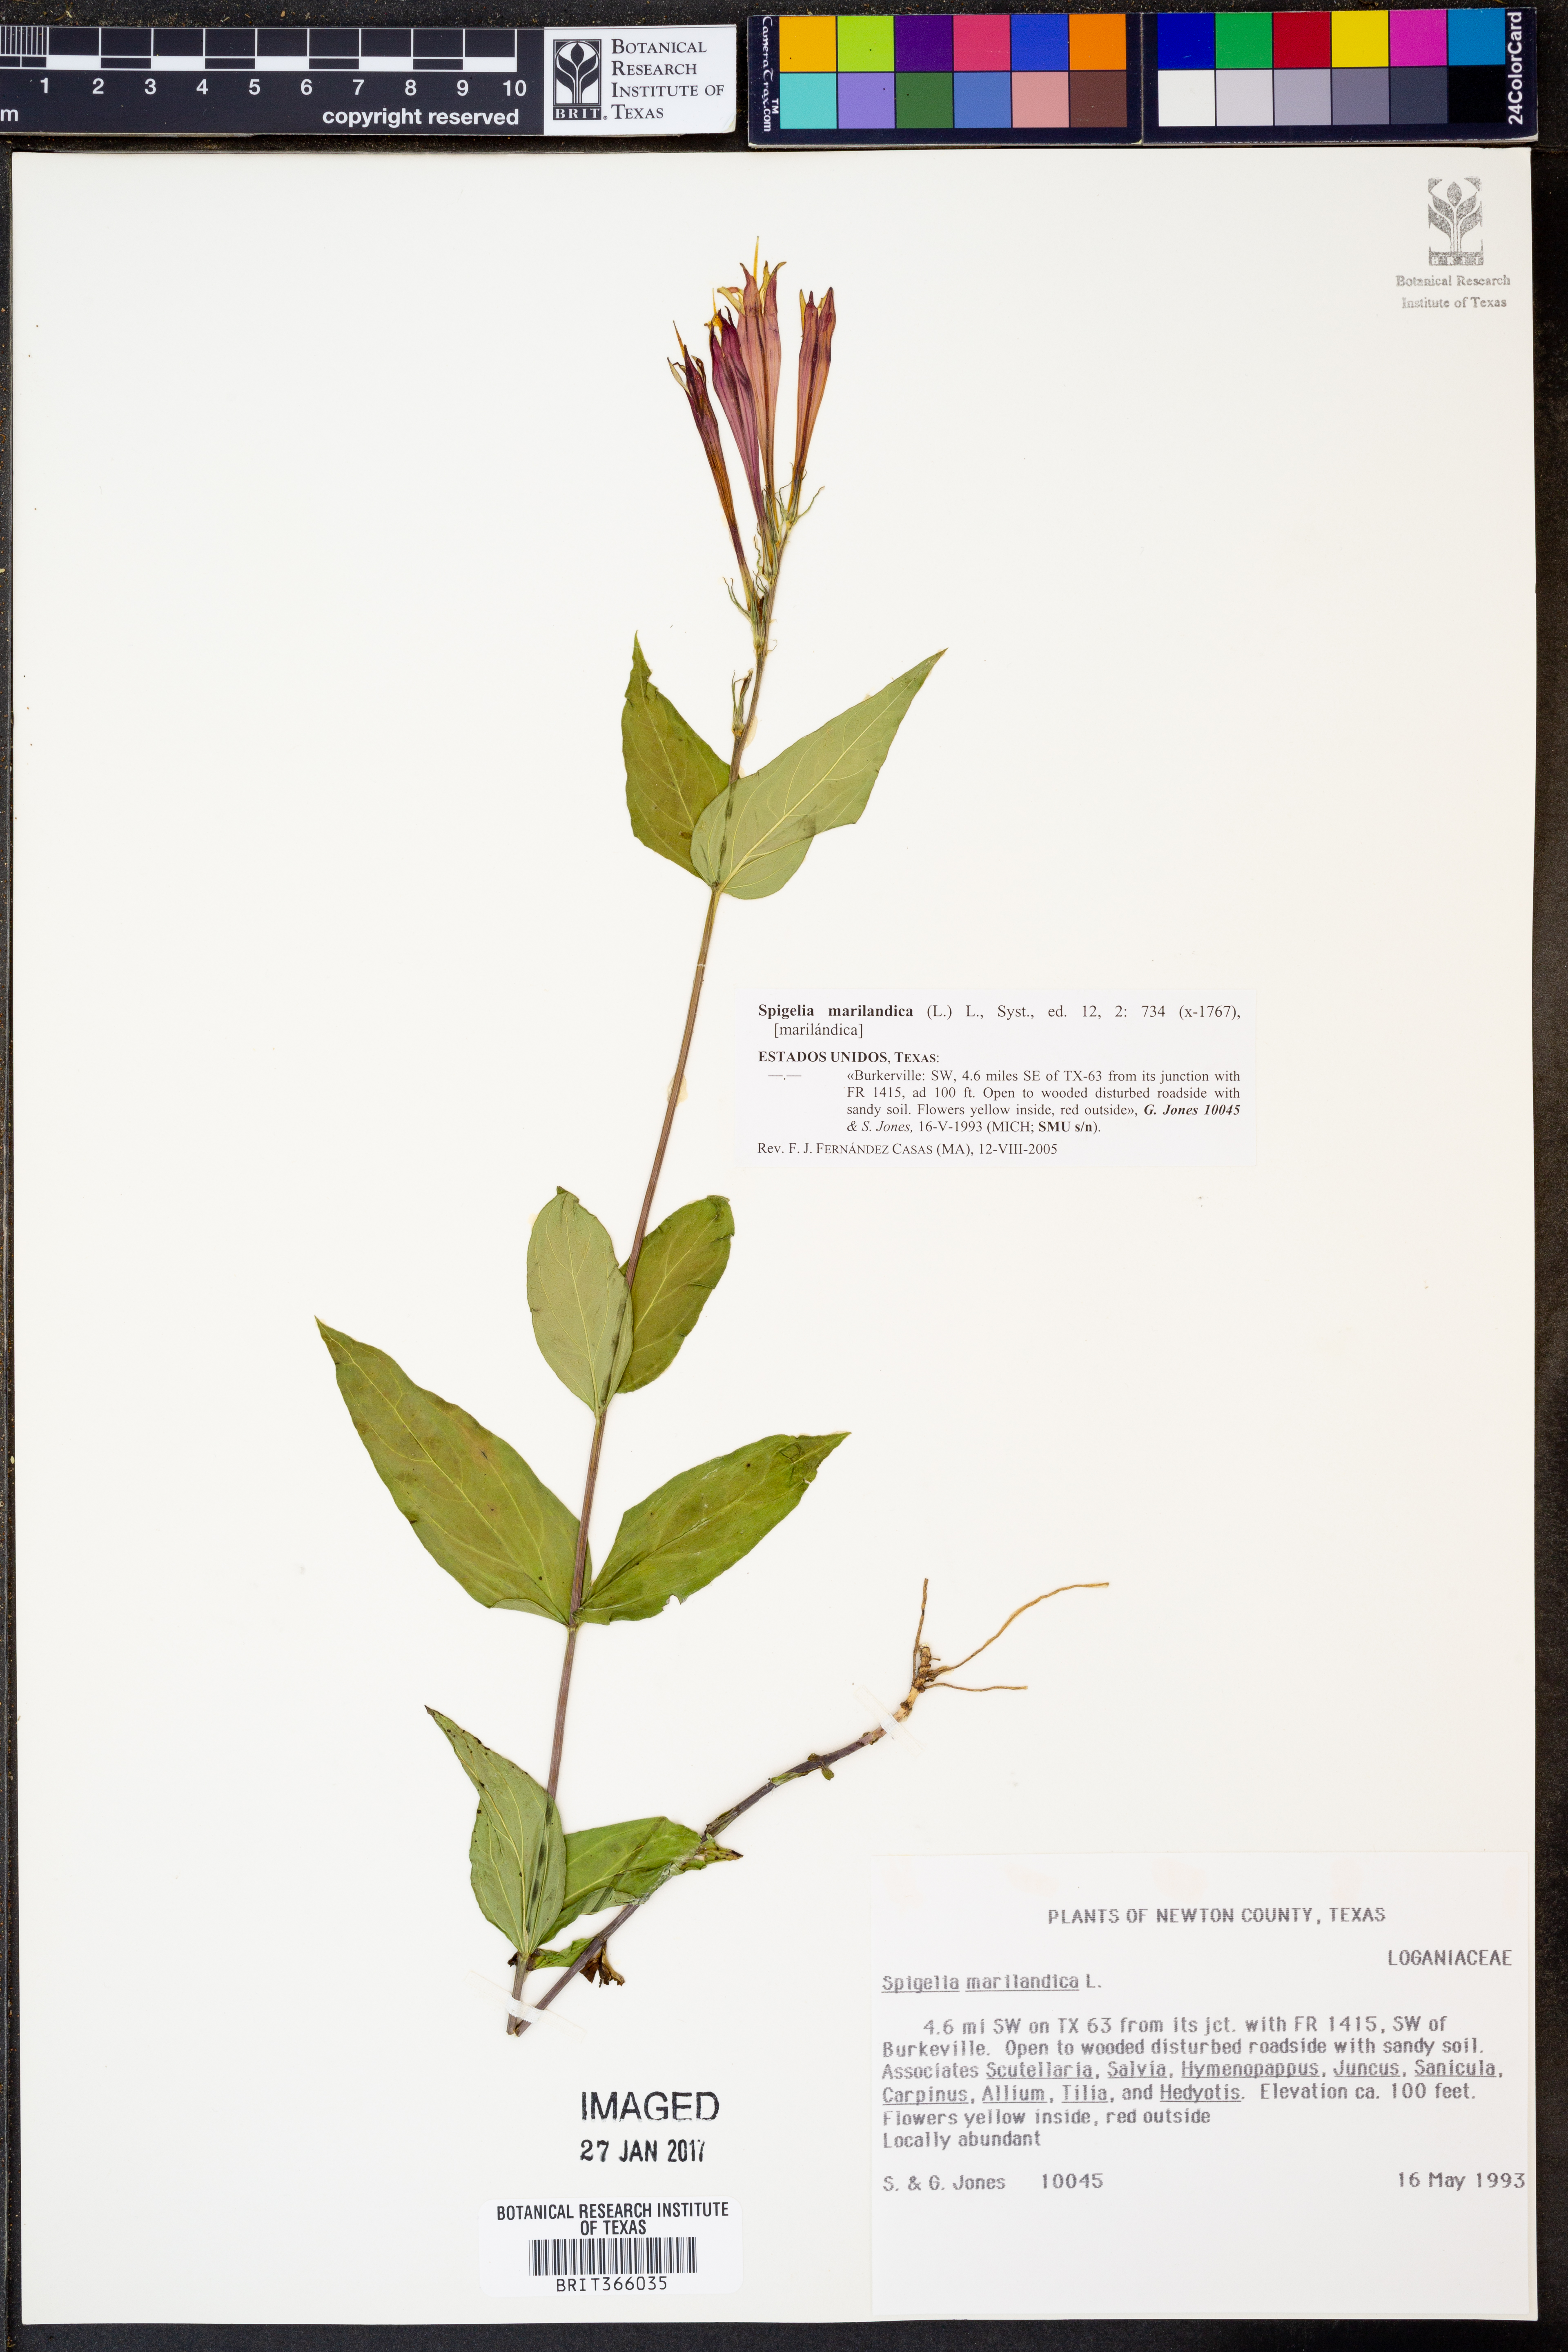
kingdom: Plantae
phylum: Tracheophyta
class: Magnoliopsida
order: Gentianales
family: Loganiaceae
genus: Spigelia
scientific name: Spigelia marilandica
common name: Indian-pink
